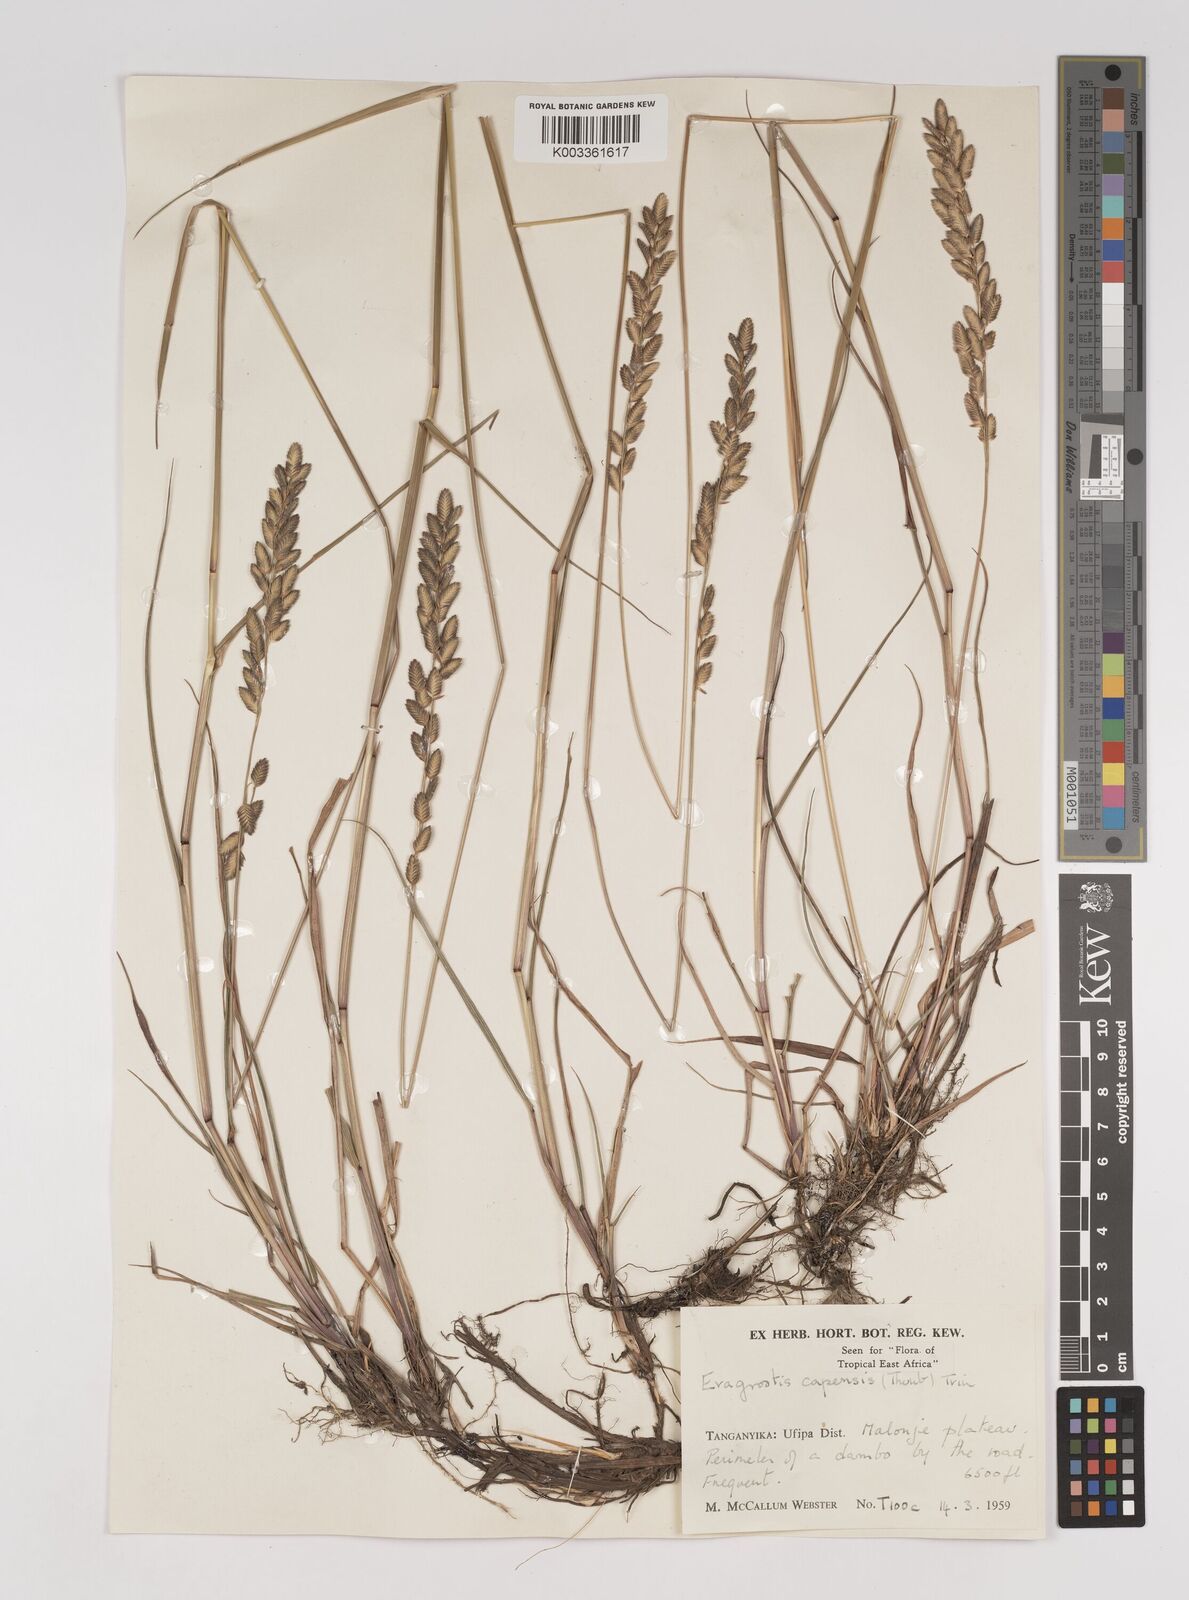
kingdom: Plantae
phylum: Tracheophyta
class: Liliopsida
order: Poales
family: Poaceae
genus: Eragrostis
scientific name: Eragrostis capensis
